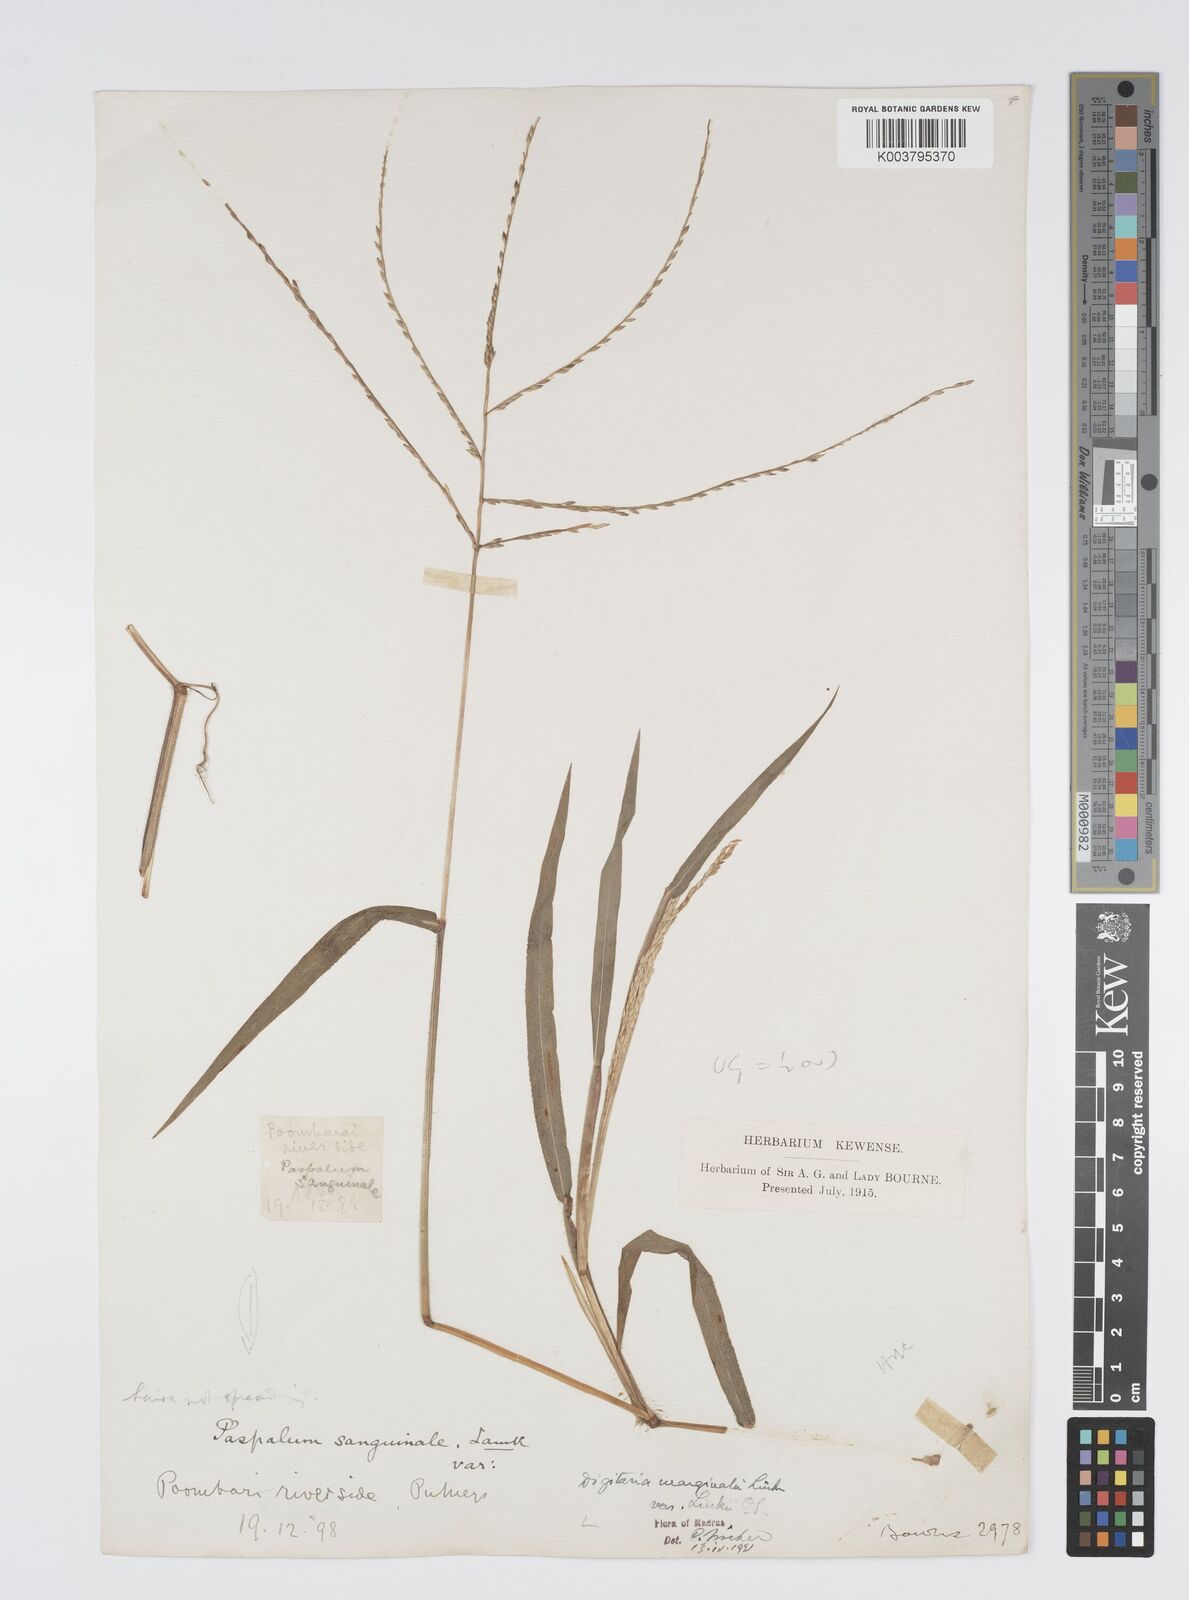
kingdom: Plantae
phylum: Tracheophyta
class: Liliopsida
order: Poales
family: Poaceae
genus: Digitaria
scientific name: Digitaria ciliaris
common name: Tropical finger-grass
